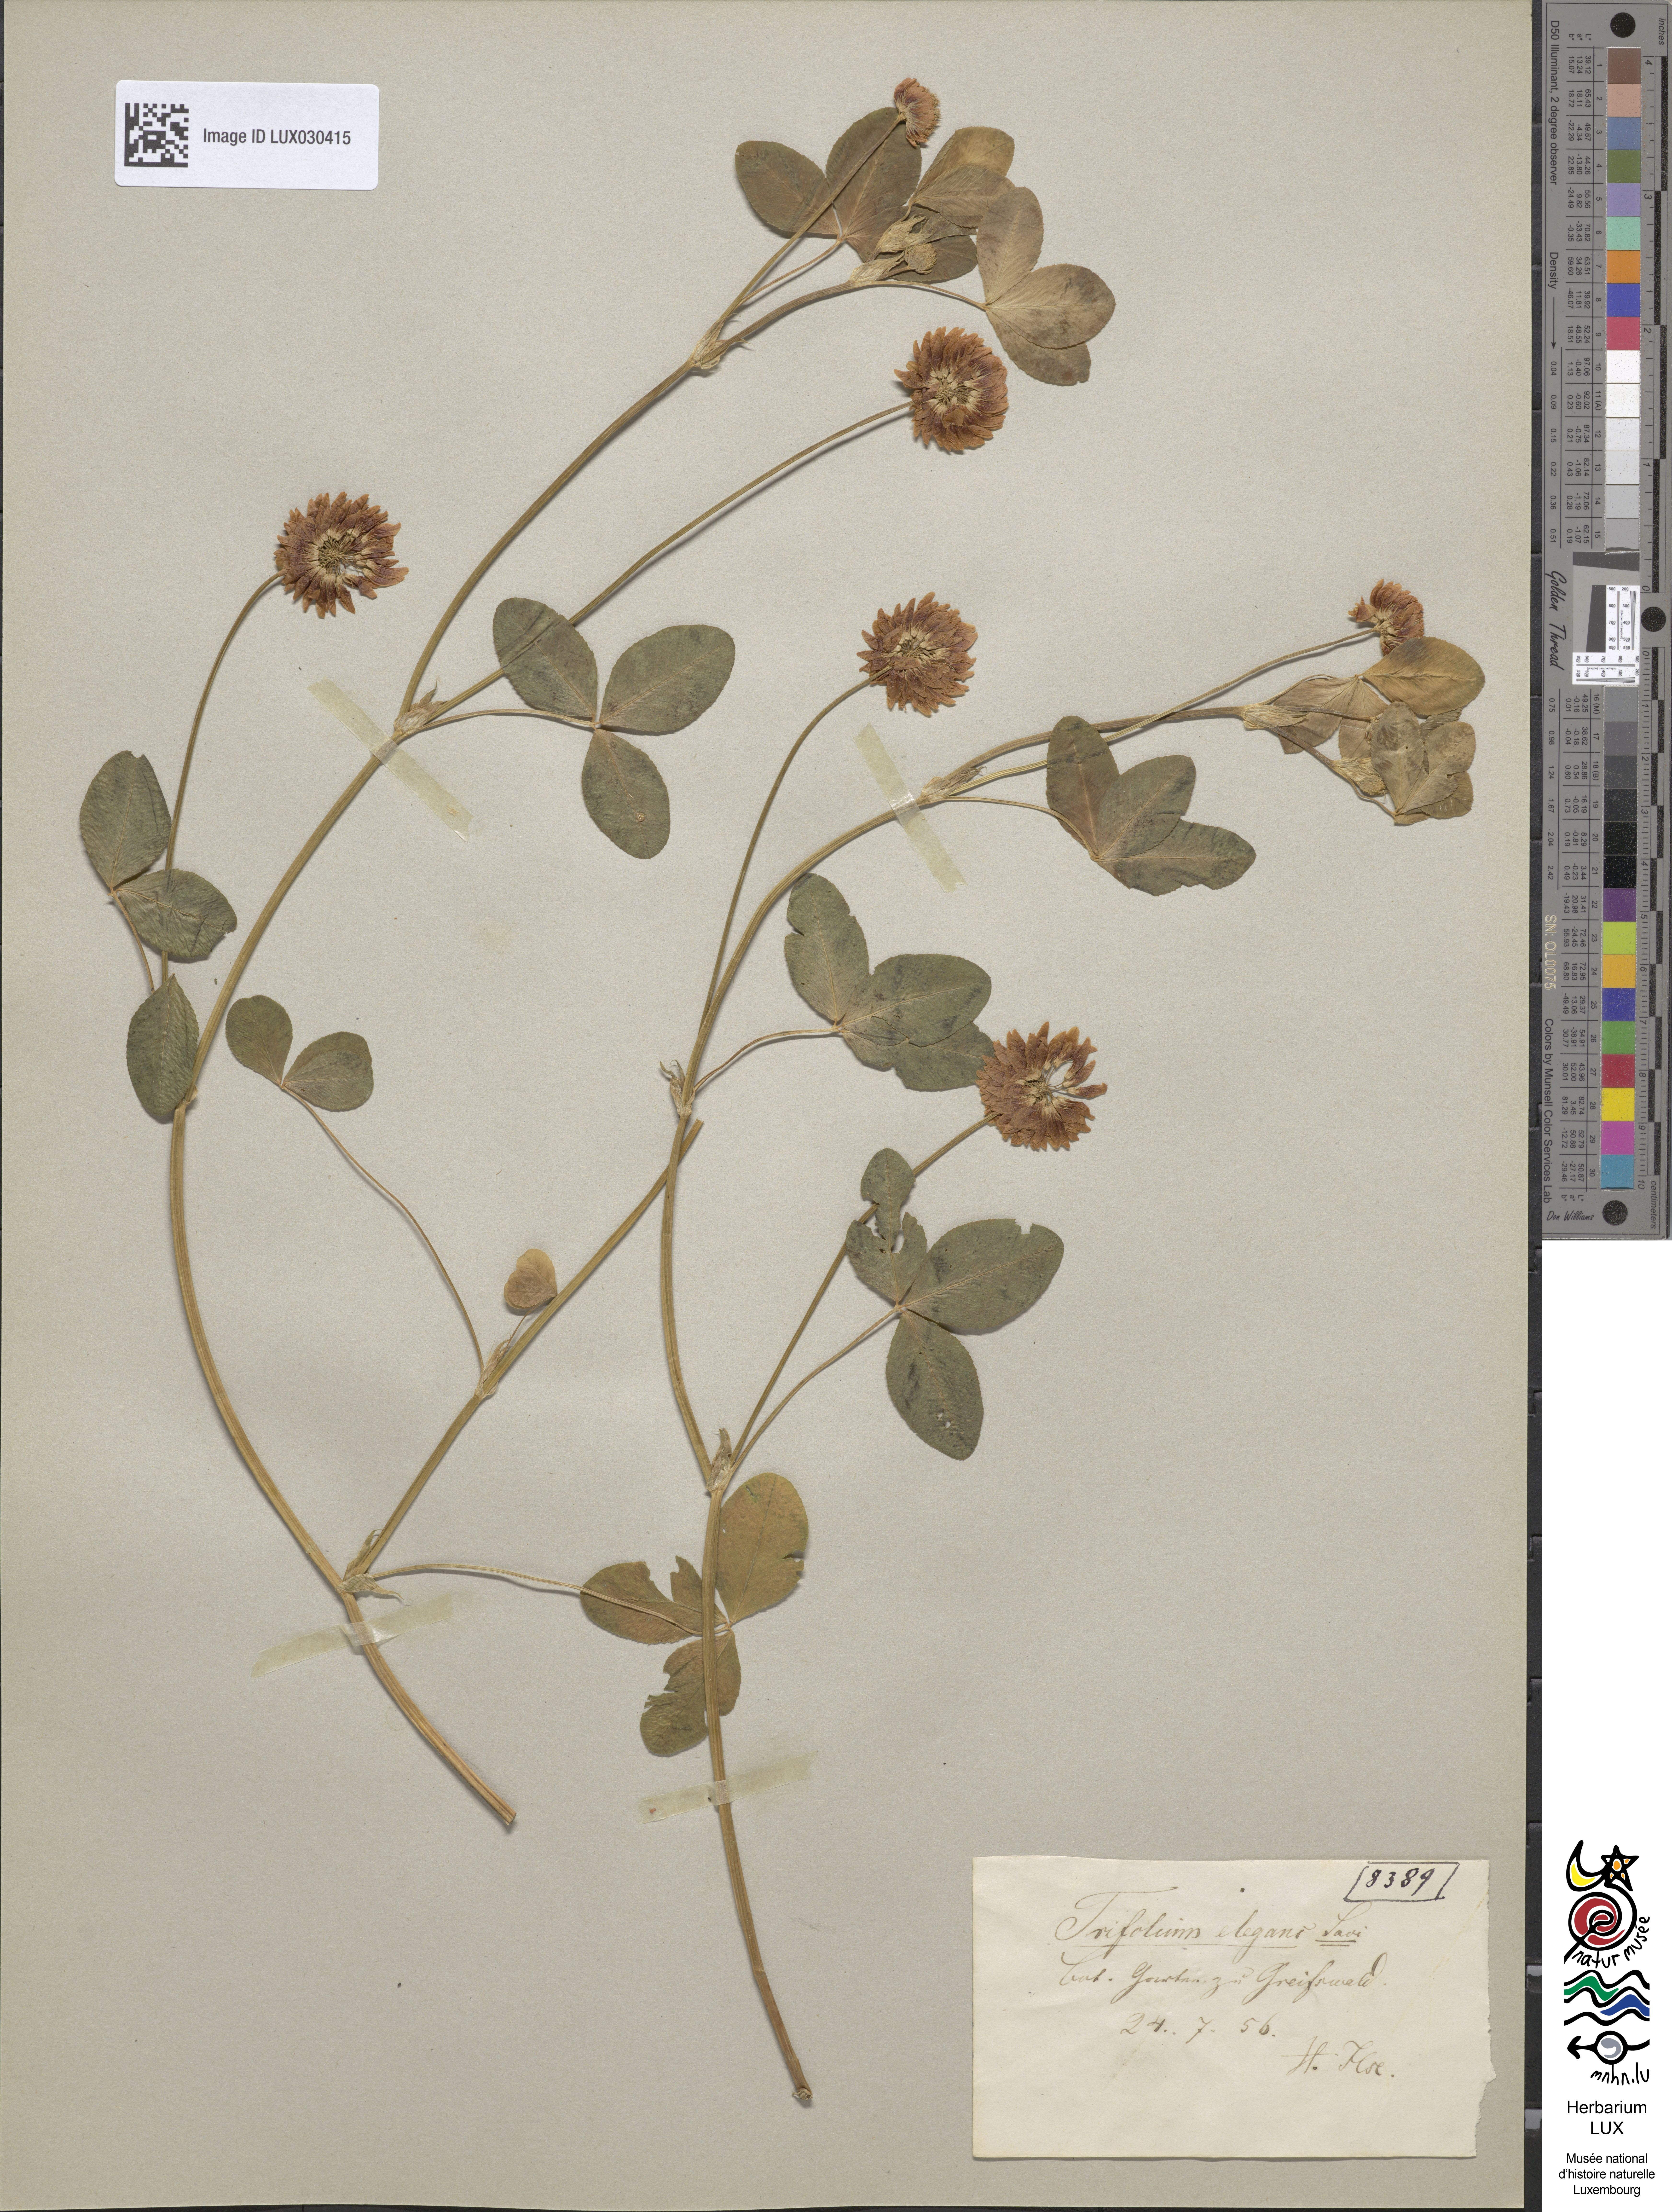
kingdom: Plantae
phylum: Tracheophyta
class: Magnoliopsida
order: Fabales
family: Fabaceae
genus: Trifolium
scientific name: Trifolium hybridum
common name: Alsike clover
